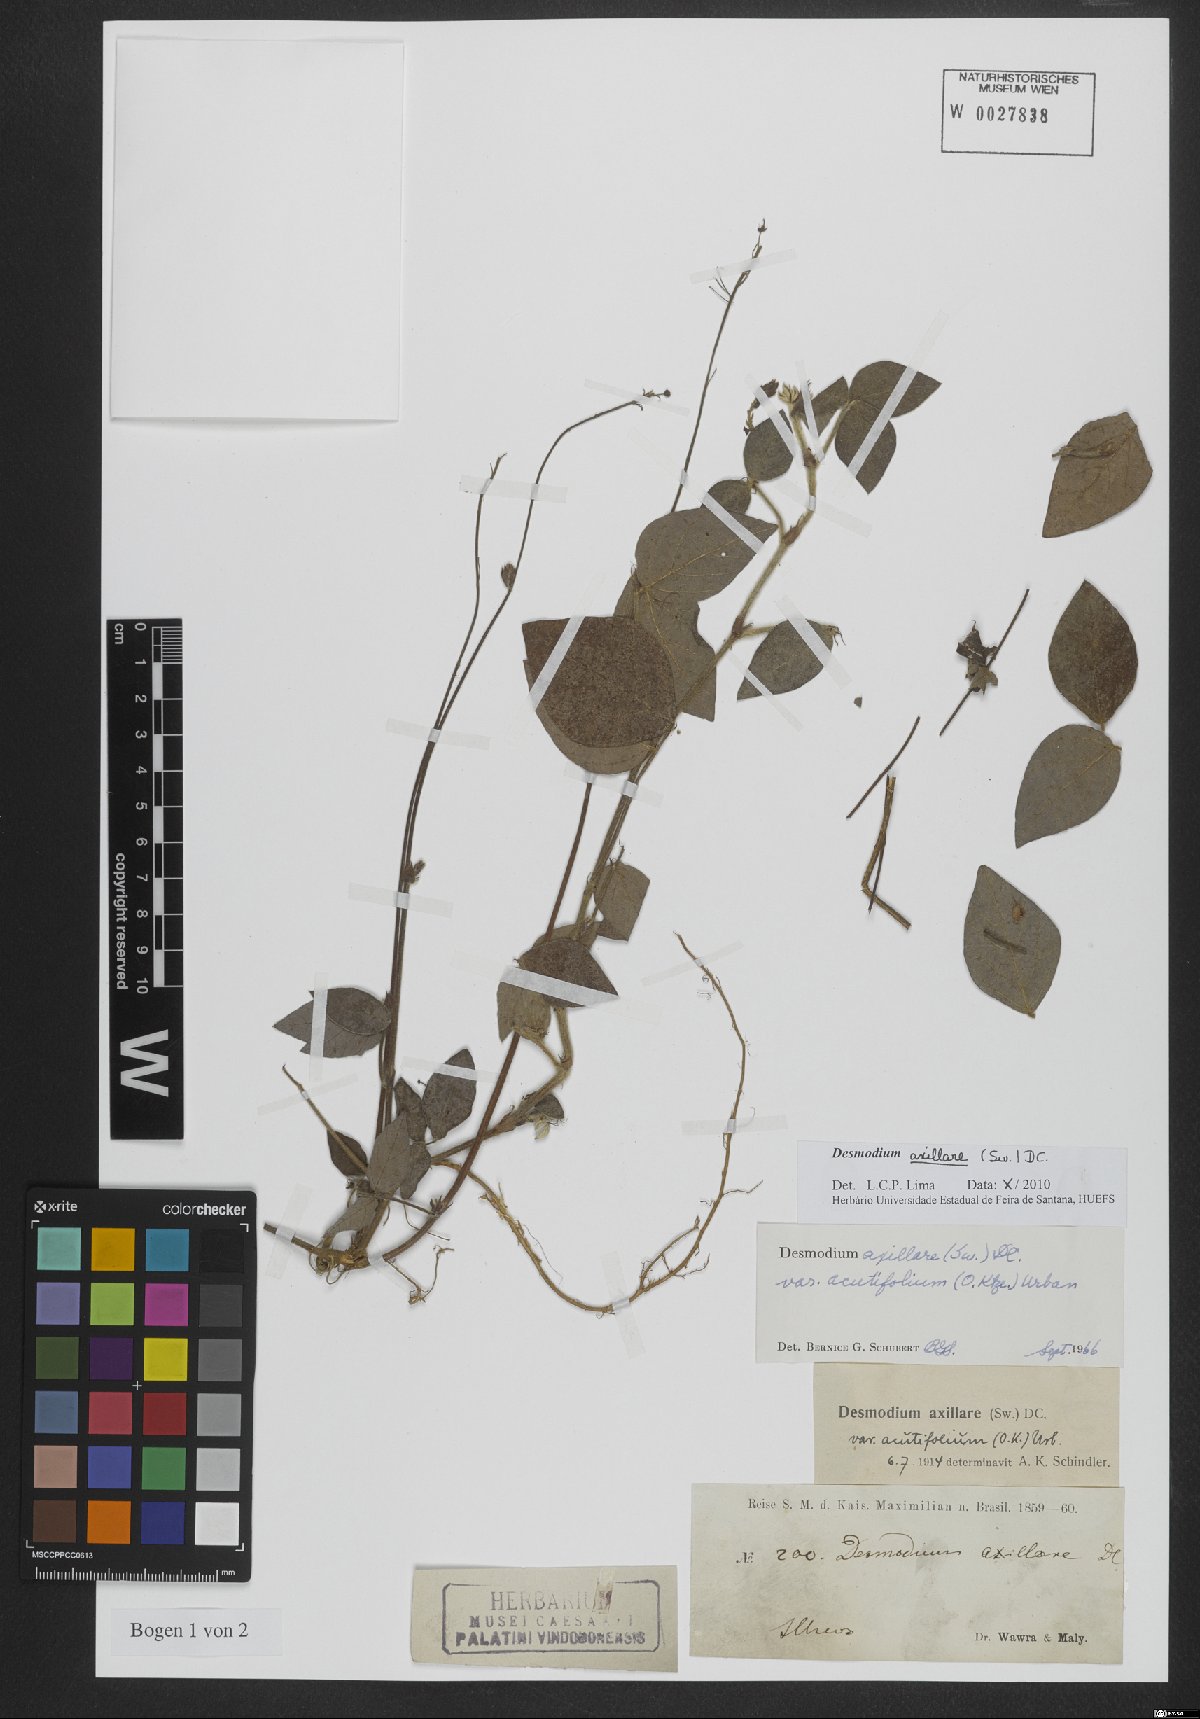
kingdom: Plantae
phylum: Tracheophyta
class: Magnoliopsida
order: Fabales
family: Fabaceae
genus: Desmodium
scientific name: Desmodium axillare
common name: Wire with
